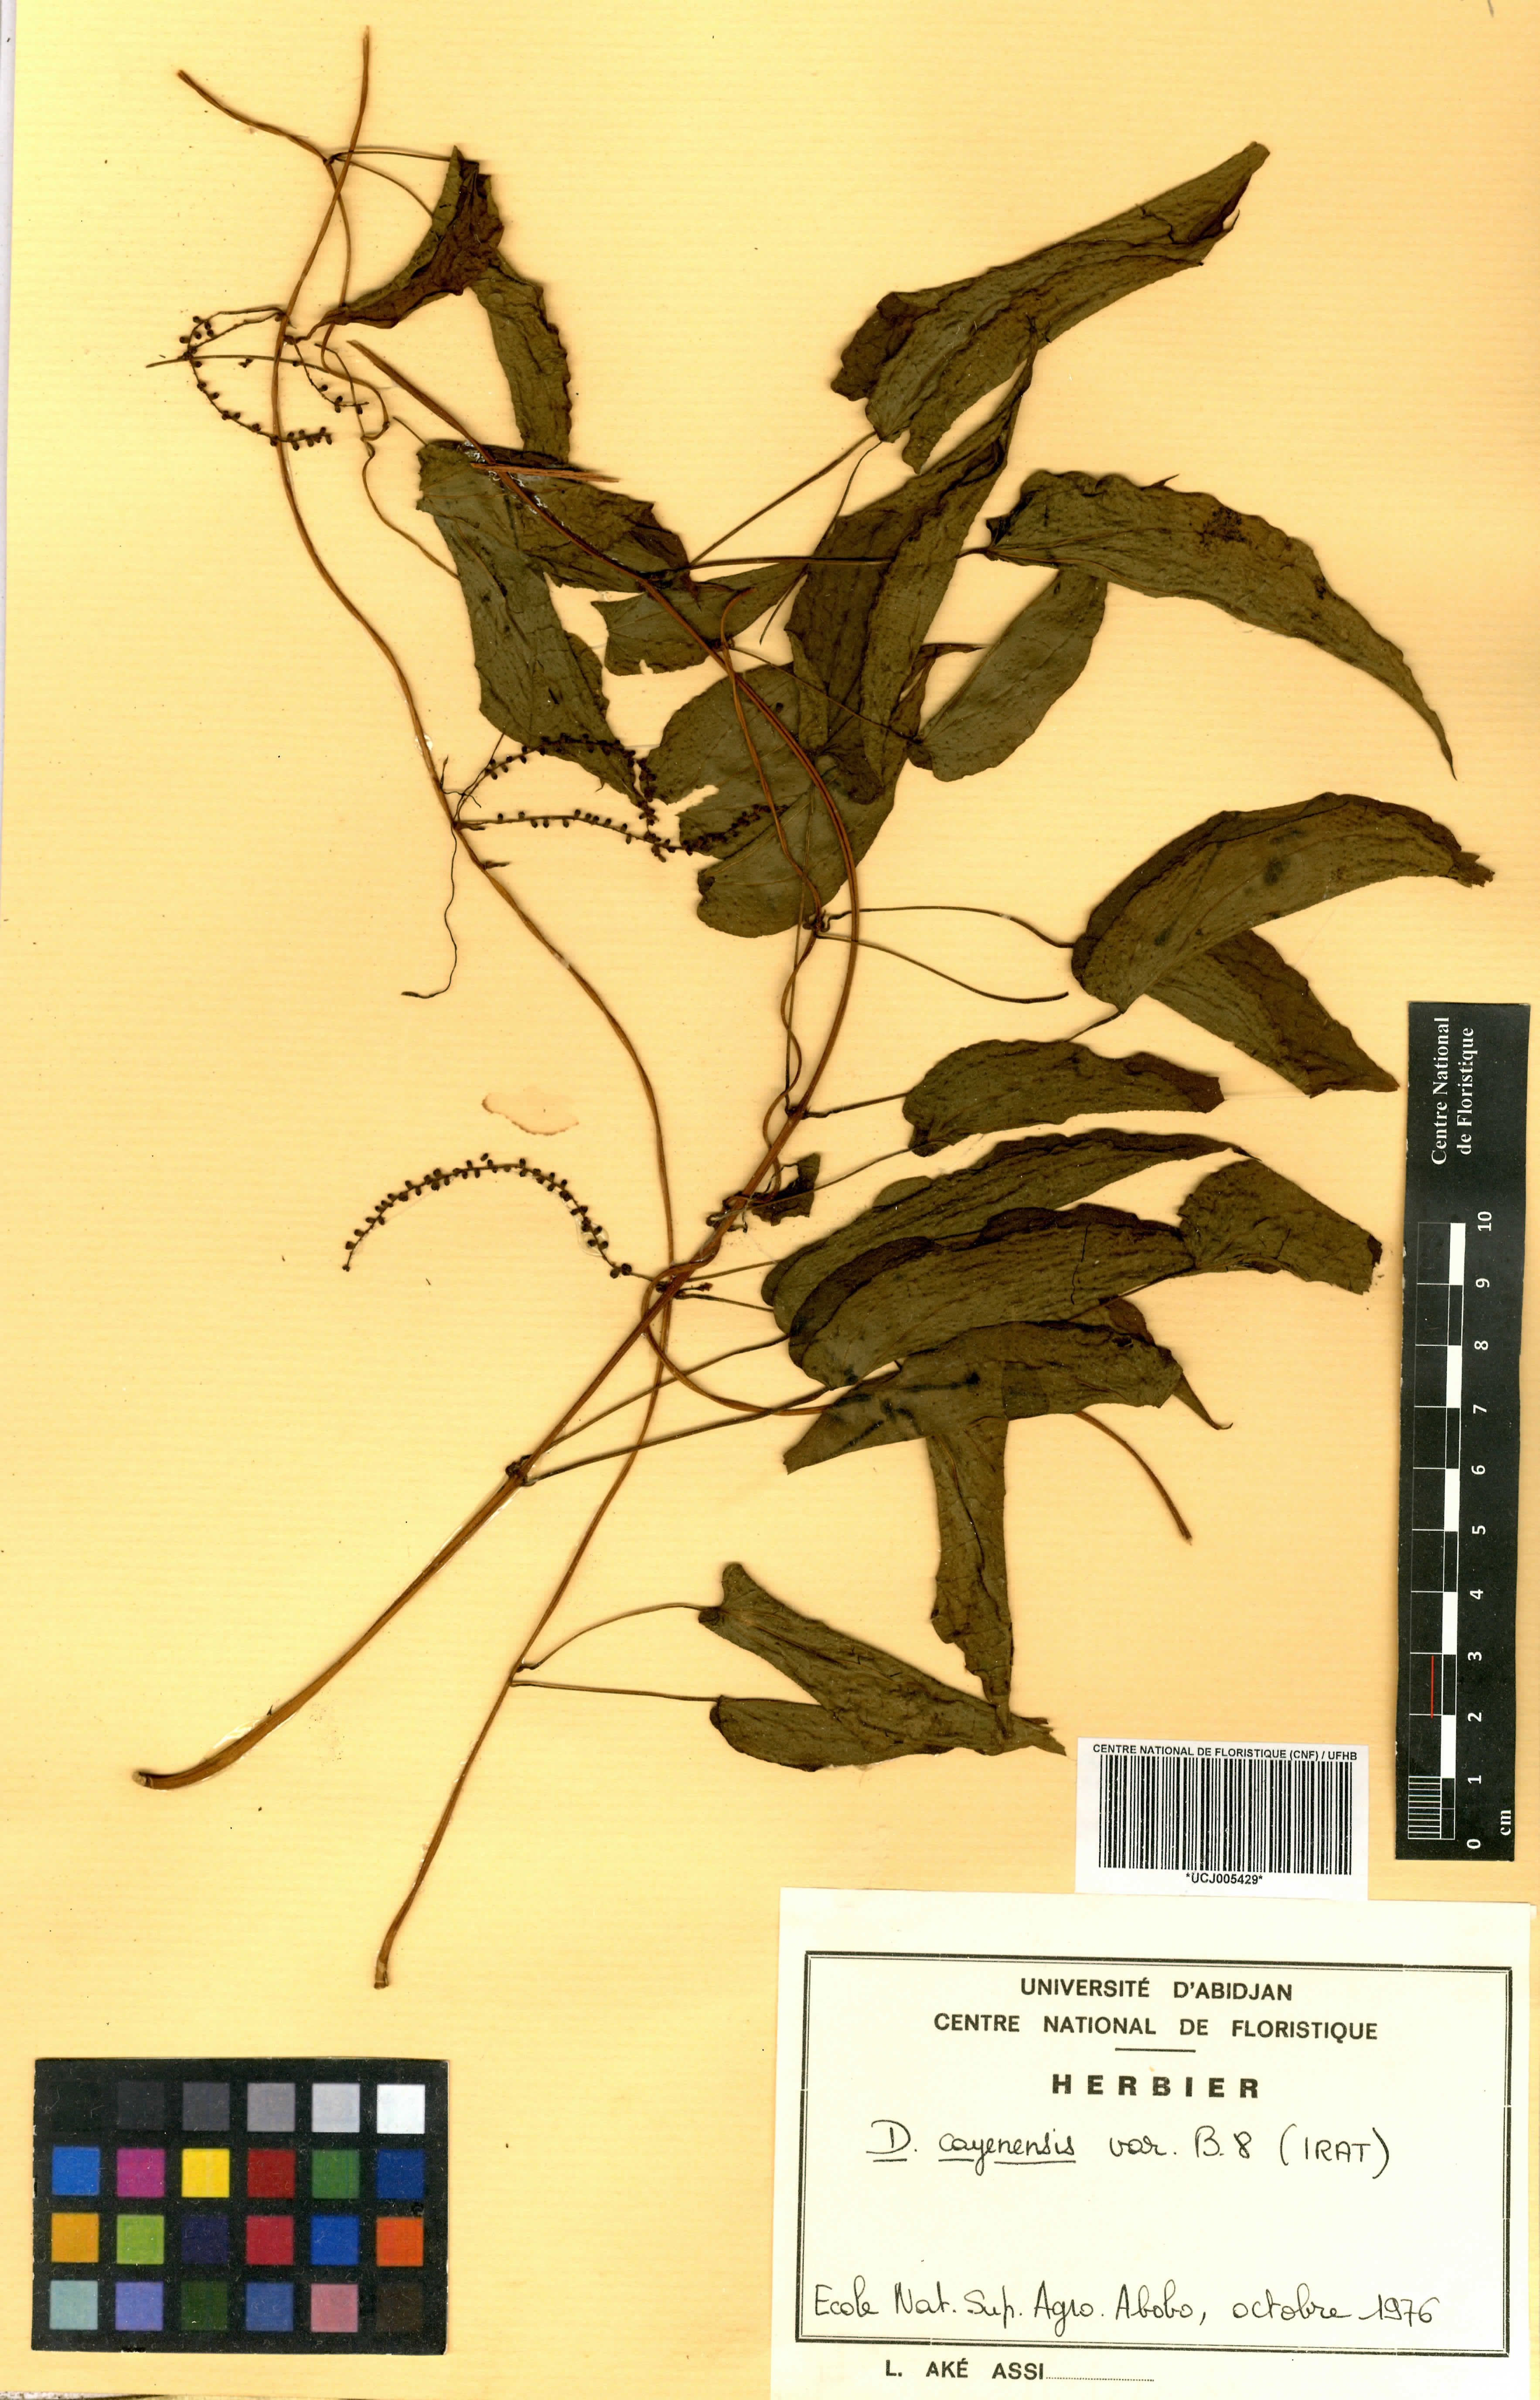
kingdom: Plantae
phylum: Tracheophyta
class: Liliopsida
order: Dioscoreales
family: Dioscoreaceae
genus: Dioscorea
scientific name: Dioscorea cayenensis
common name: Attoto yam
